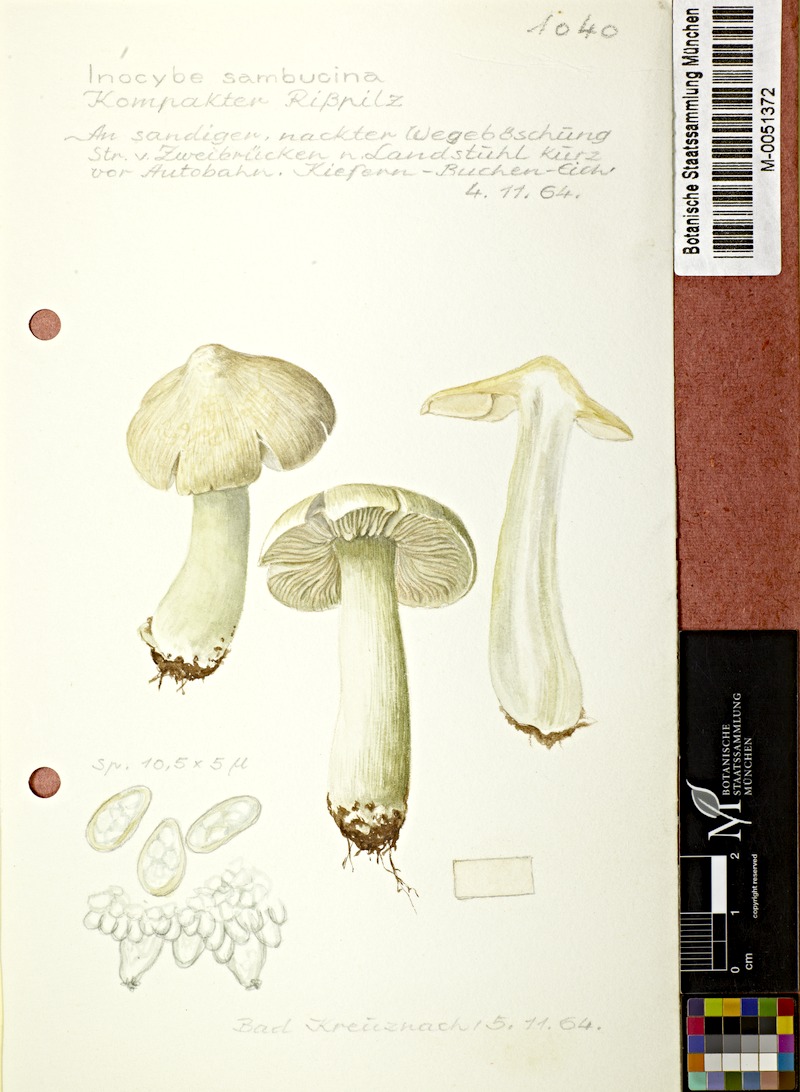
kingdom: Fungi
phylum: Basidiomycota
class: Agaricomycetes
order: Agaricales
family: Inocybaceae
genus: Inocybe
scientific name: Inocybe sambucina
